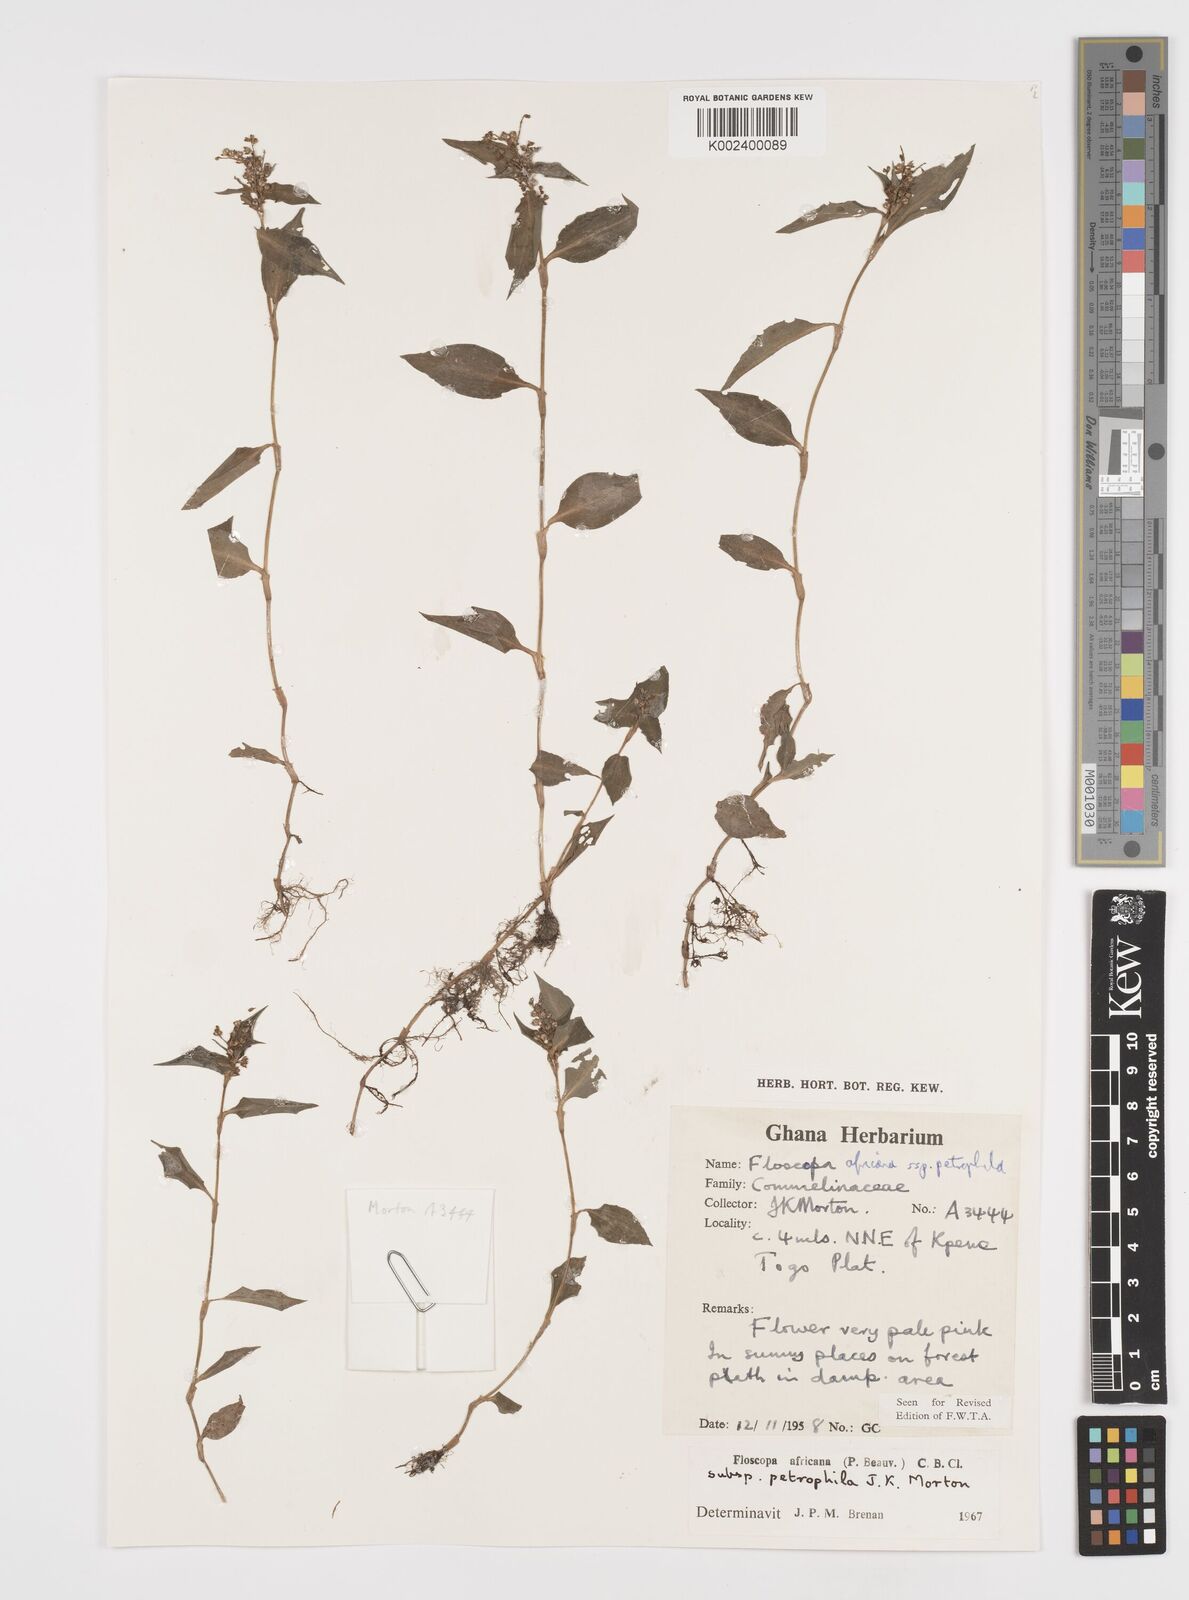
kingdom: Plantae
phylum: Tracheophyta
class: Liliopsida
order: Commelinales
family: Commelinaceae
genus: Floscopa
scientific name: Floscopa africana
